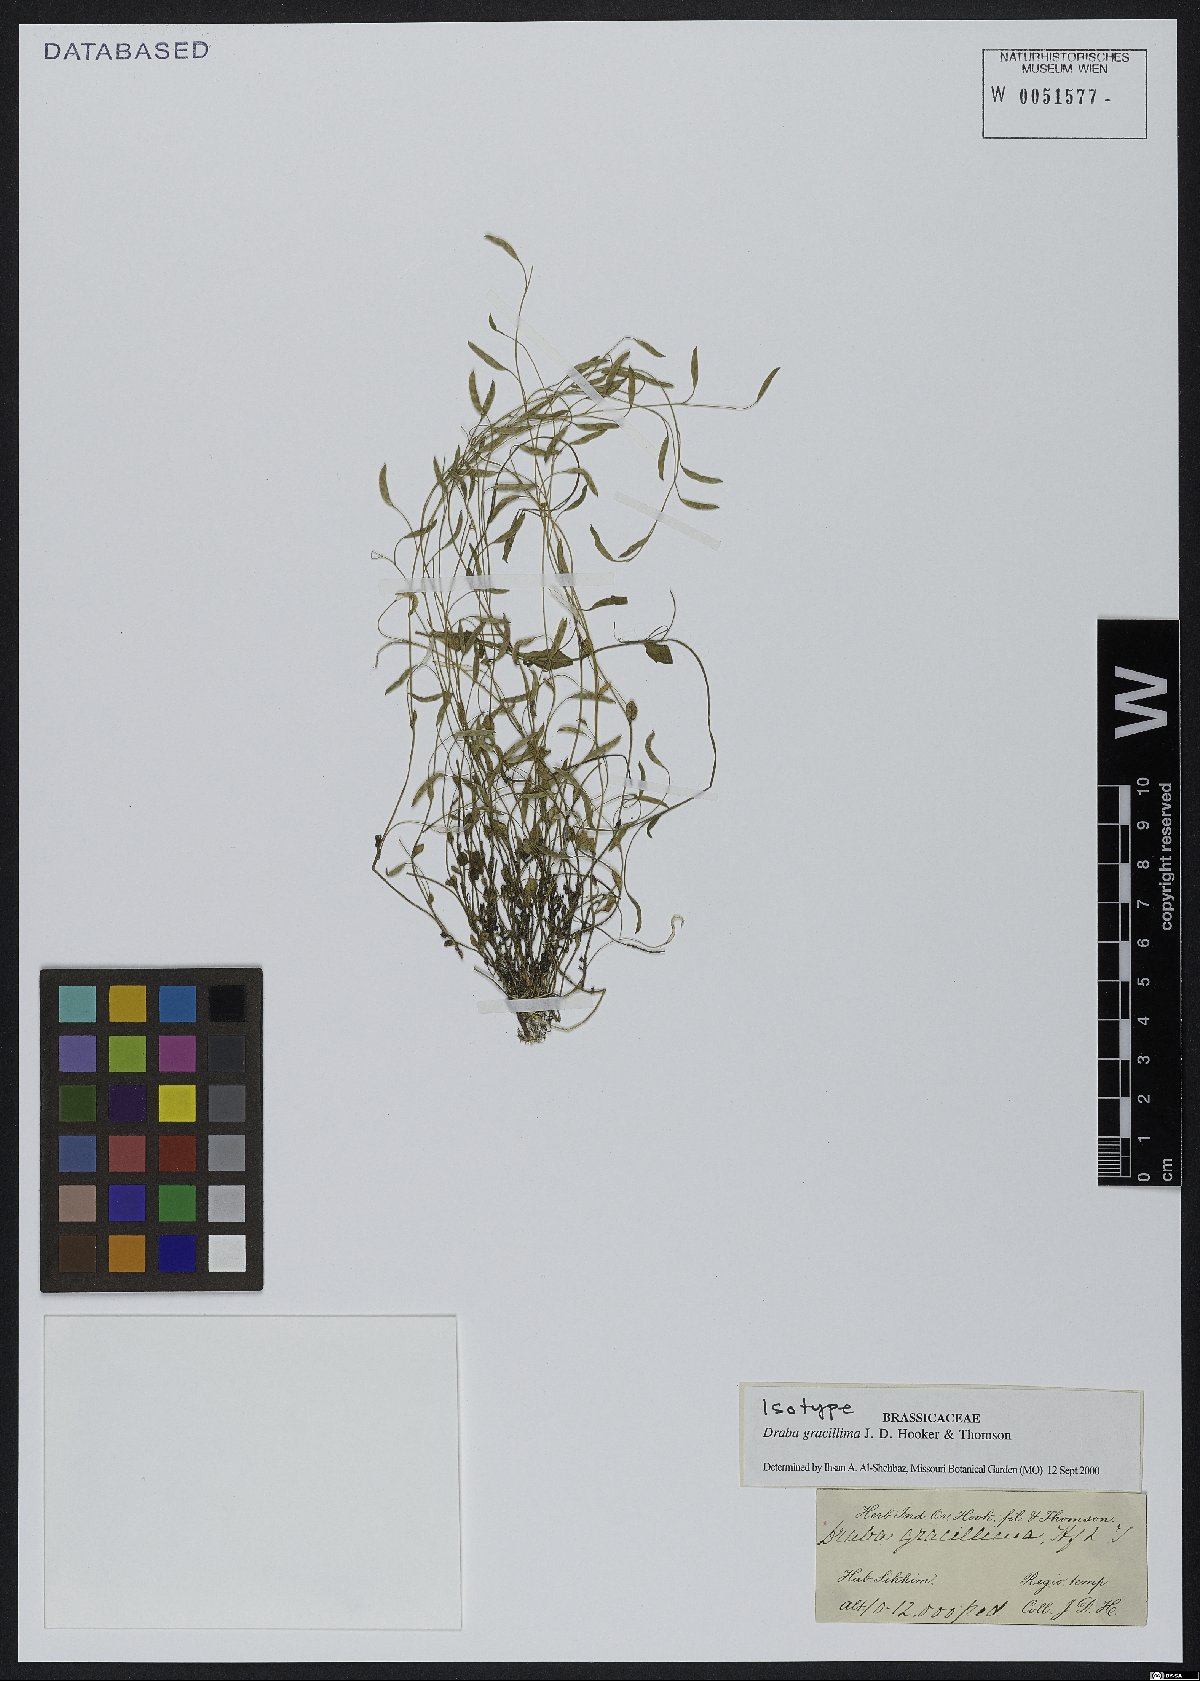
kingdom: Plantae
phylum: Tracheophyta
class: Magnoliopsida
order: Brassicales
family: Brassicaceae
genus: Draba
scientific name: Draba gracillima
